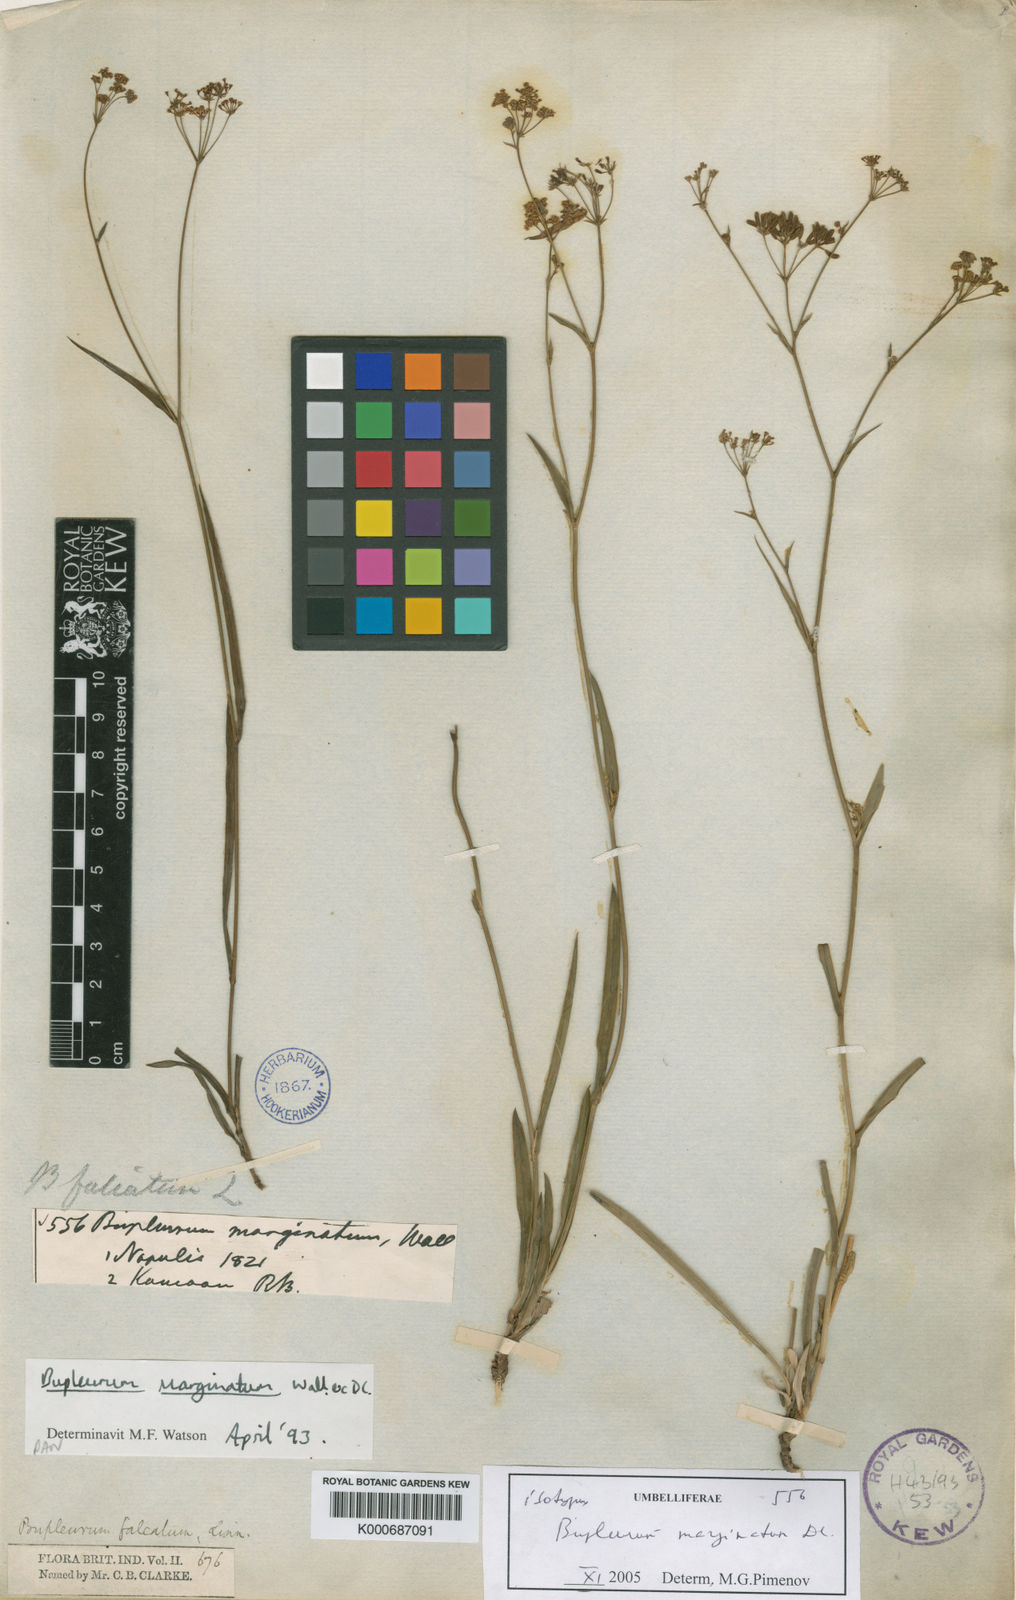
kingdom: Plantae
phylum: Tracheophyta
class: Magnoliopsida
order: Apiales
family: Apiaceae
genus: Bupleurum
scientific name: Bupleurum falcatum
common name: Sickle-leaved hare's-ear
